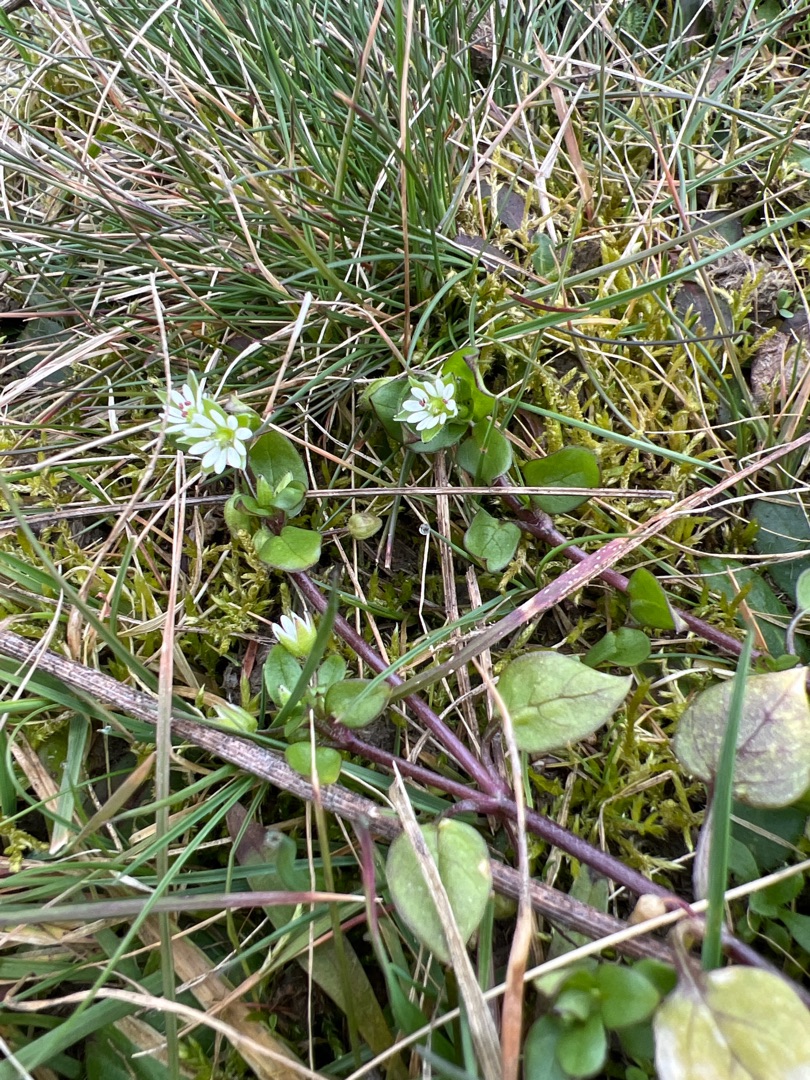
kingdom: Plantae
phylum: Tracheophyta
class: Magnoliopsida
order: Caryophyllales
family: Caryophyllaceae
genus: Stellaria
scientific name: Stellaria media
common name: Almindelig fuglegræs
